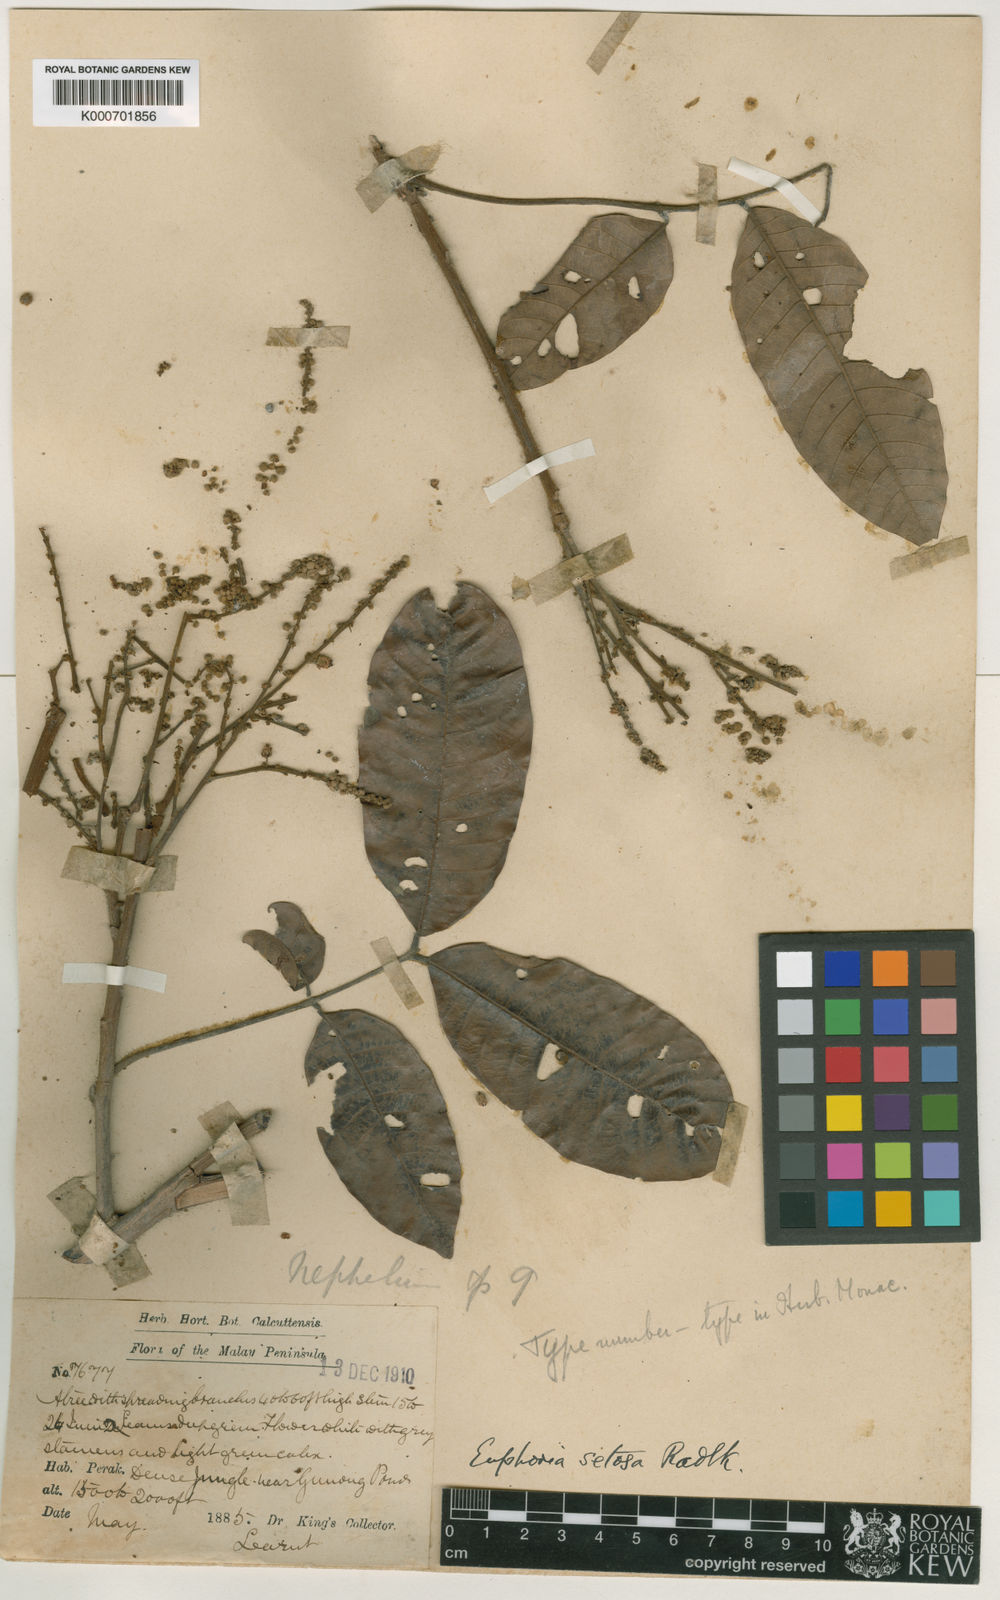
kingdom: Plantae
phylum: Tracheophyta
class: Magnoliopsida
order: Sapindales
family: Sapindaceae
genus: Dimocarpus
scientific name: Dimocarpus malesianus
